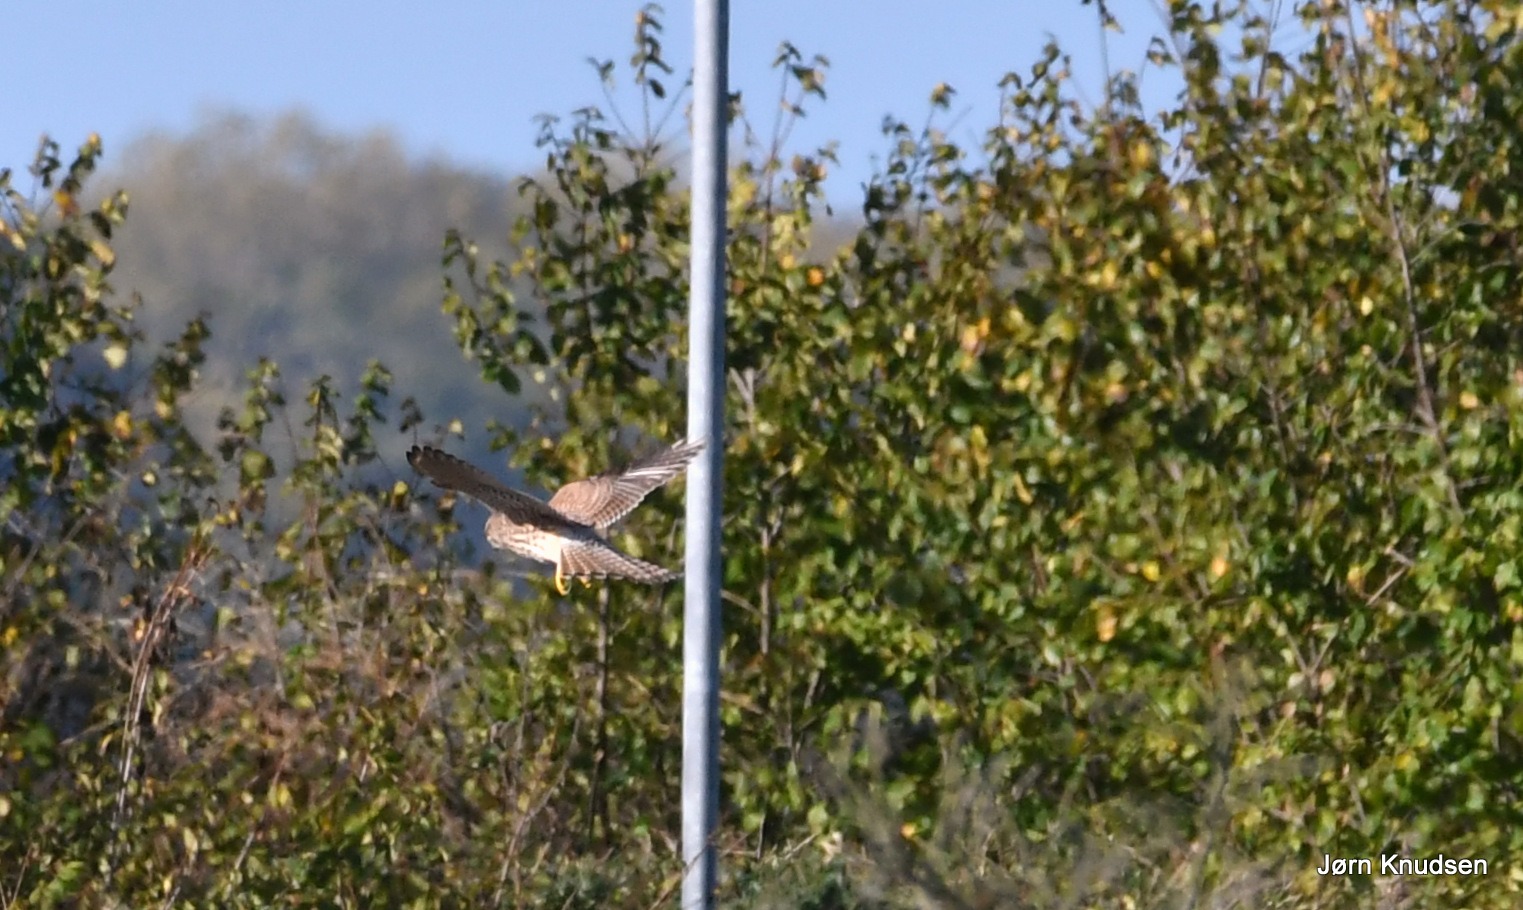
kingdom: Animalia
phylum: Chordata
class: Aves
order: Falconiformes
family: Falconidae
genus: Falco
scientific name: Falco tinnunculus
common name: Tårnfalk
